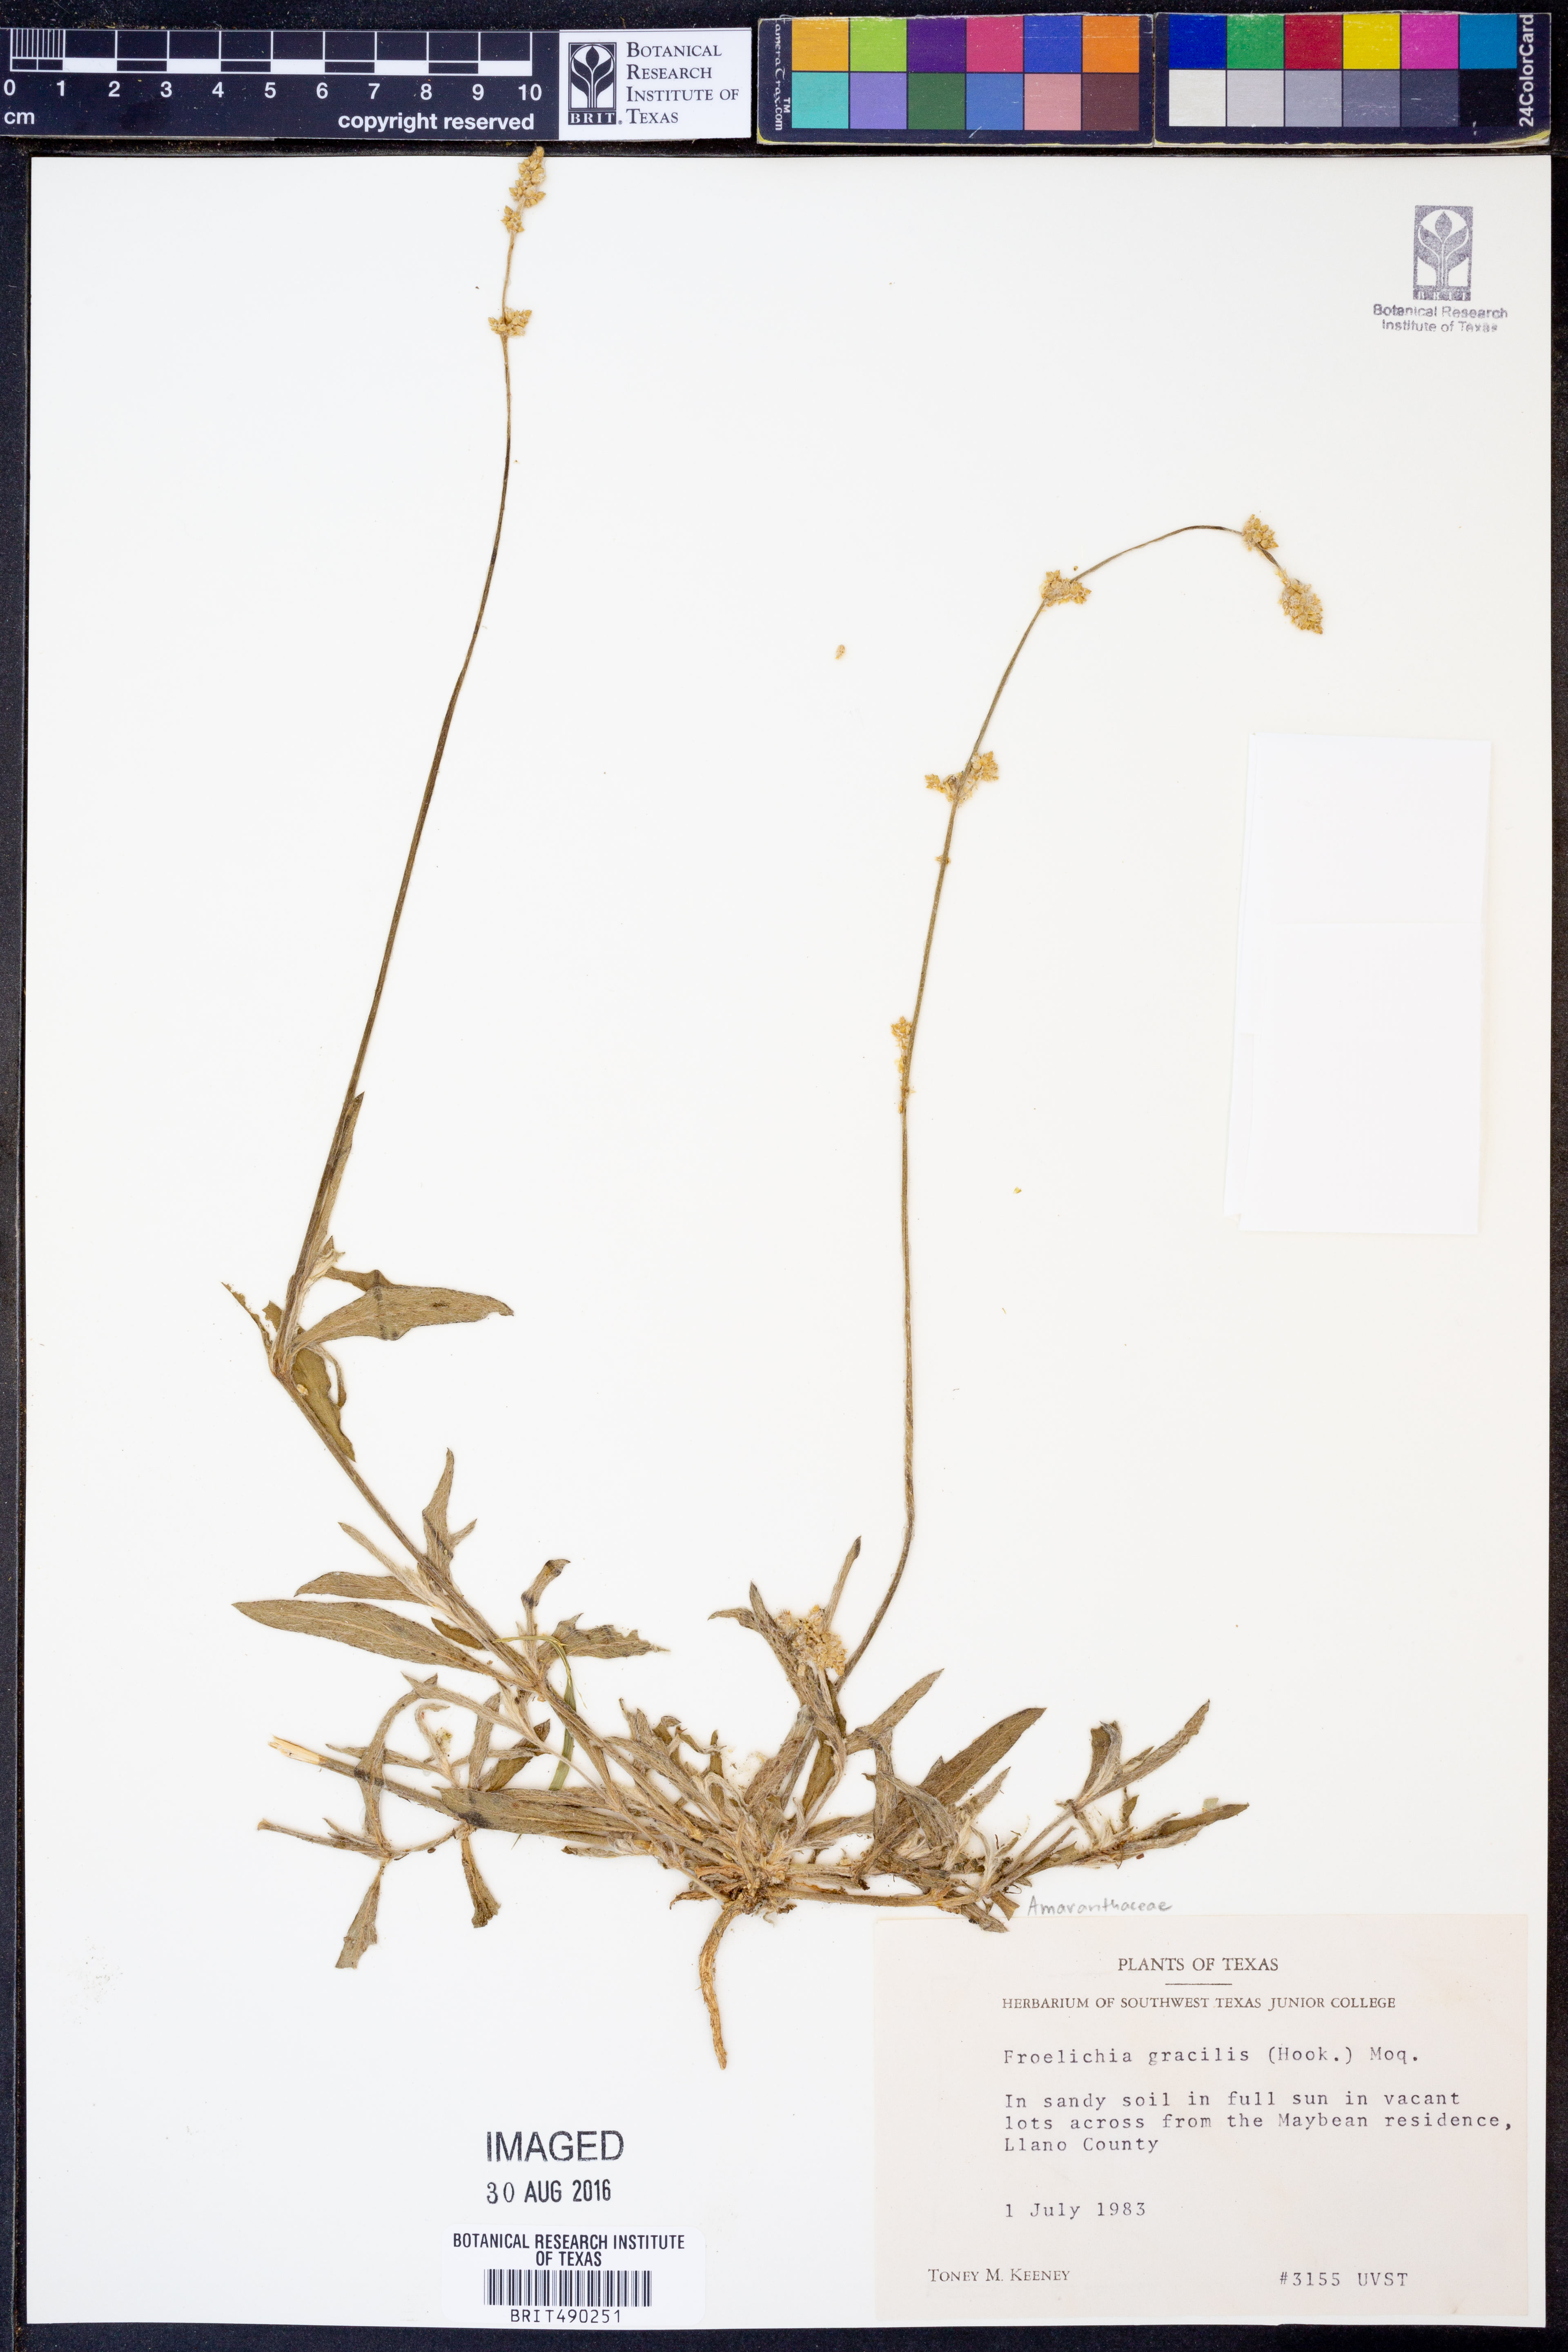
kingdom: Plantae
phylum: Tracheophyta
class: Magnoliopsida
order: Caryophyllales
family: Amaranthaceae
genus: Froelichia
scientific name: Froelichia gracilis
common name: Slender cottonweed
